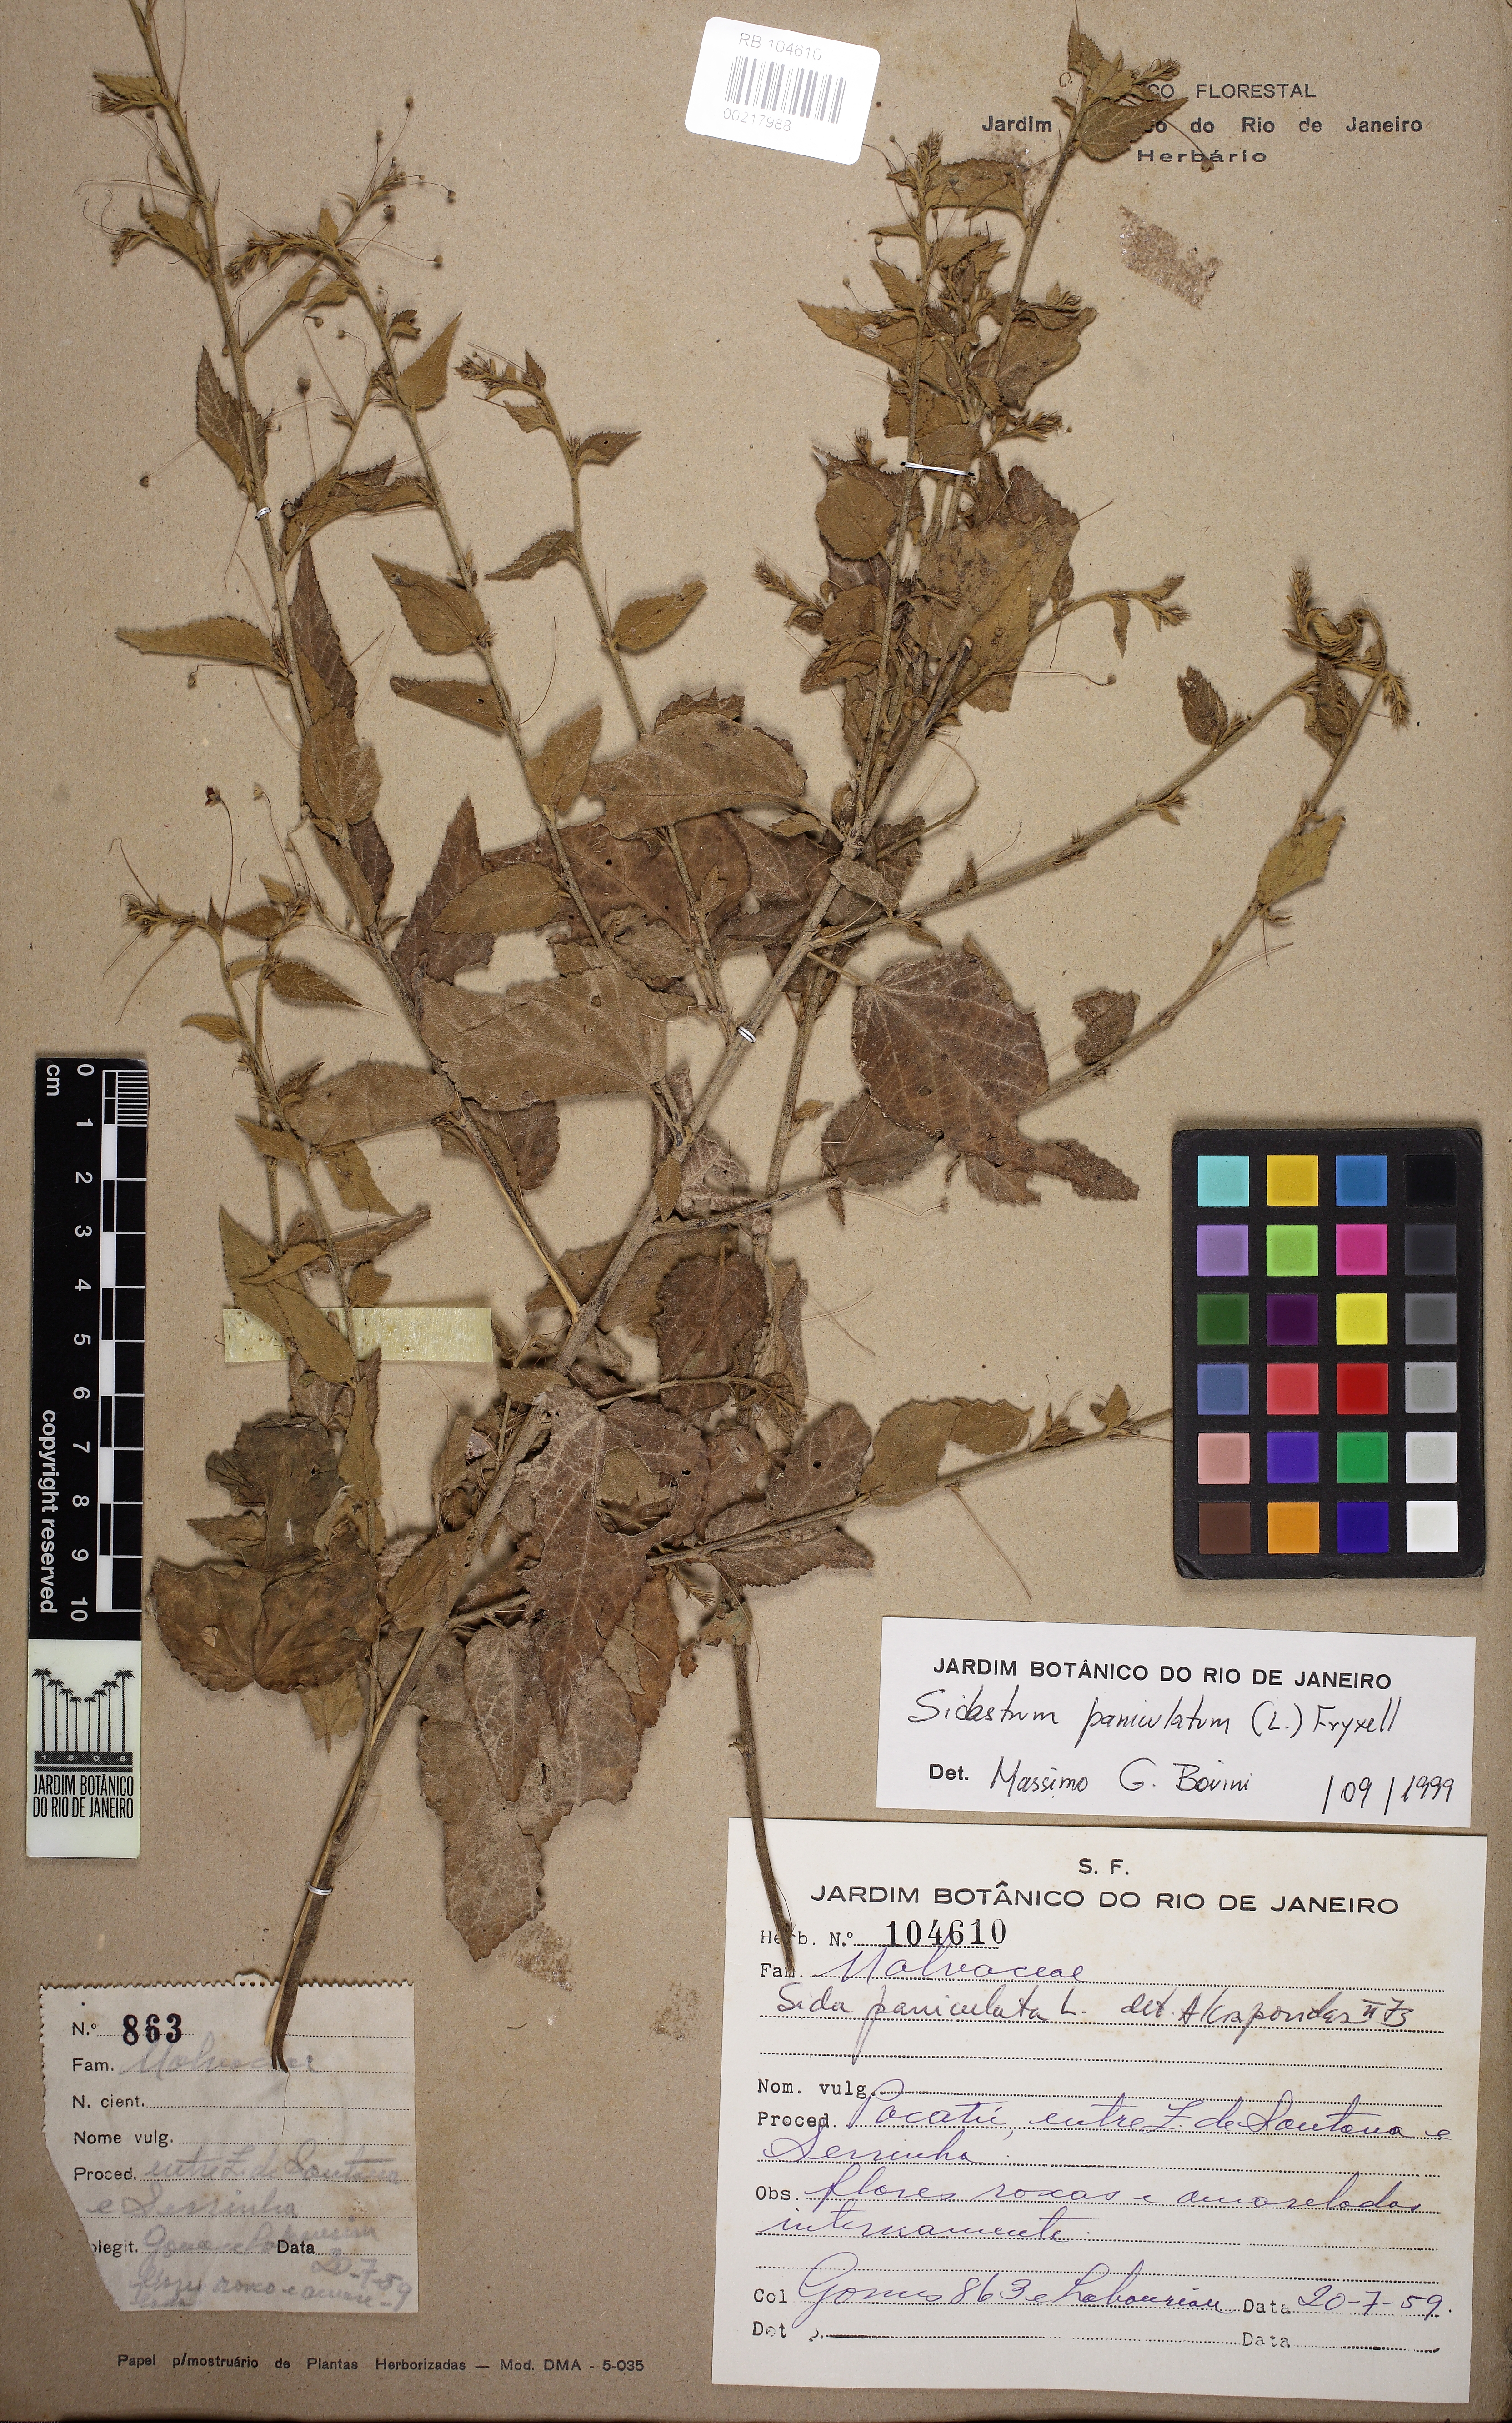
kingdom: Plantae
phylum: Tracheophyta
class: Magnoliopsida
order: Malvales
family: Malvaceae
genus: Sidastrum
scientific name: Sidastrum paniculatum
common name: Panicled sandmallow
